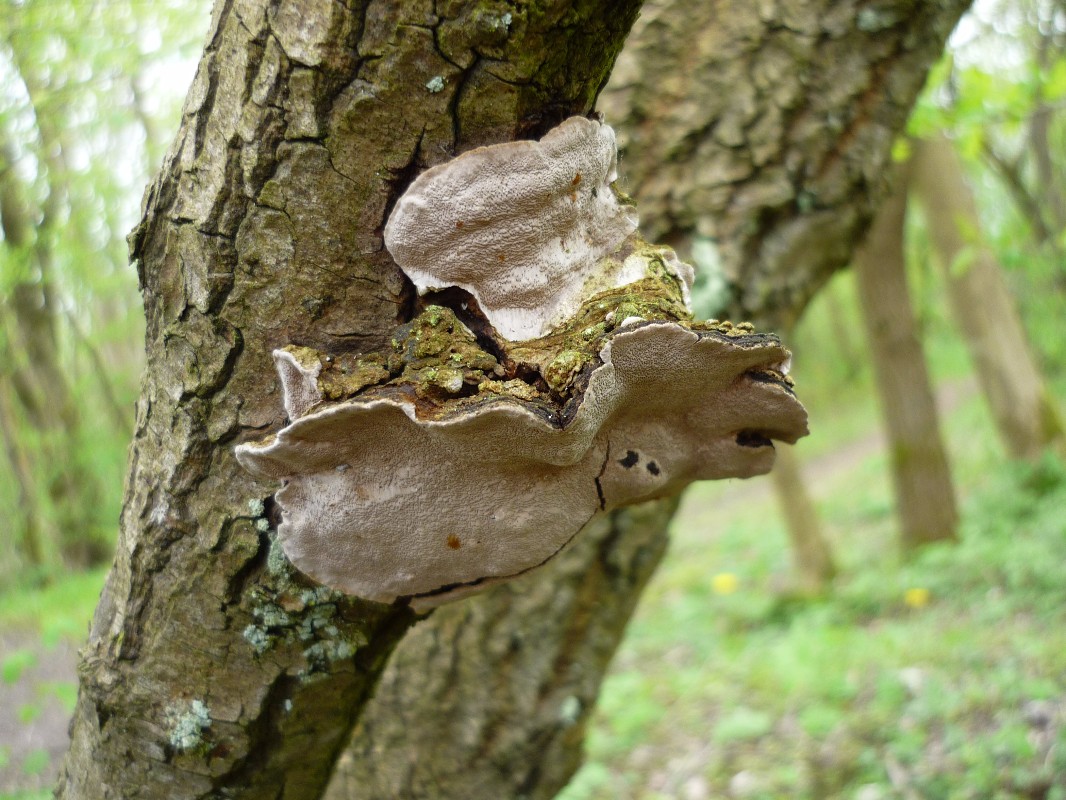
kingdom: Fungi
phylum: Basidiomycota
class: Agaricomycetes
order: Hymenochaetales
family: Hymenochaetaceae
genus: Phellinopsis
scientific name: Phellinopsis conchata
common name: pile-ildporesvamp
